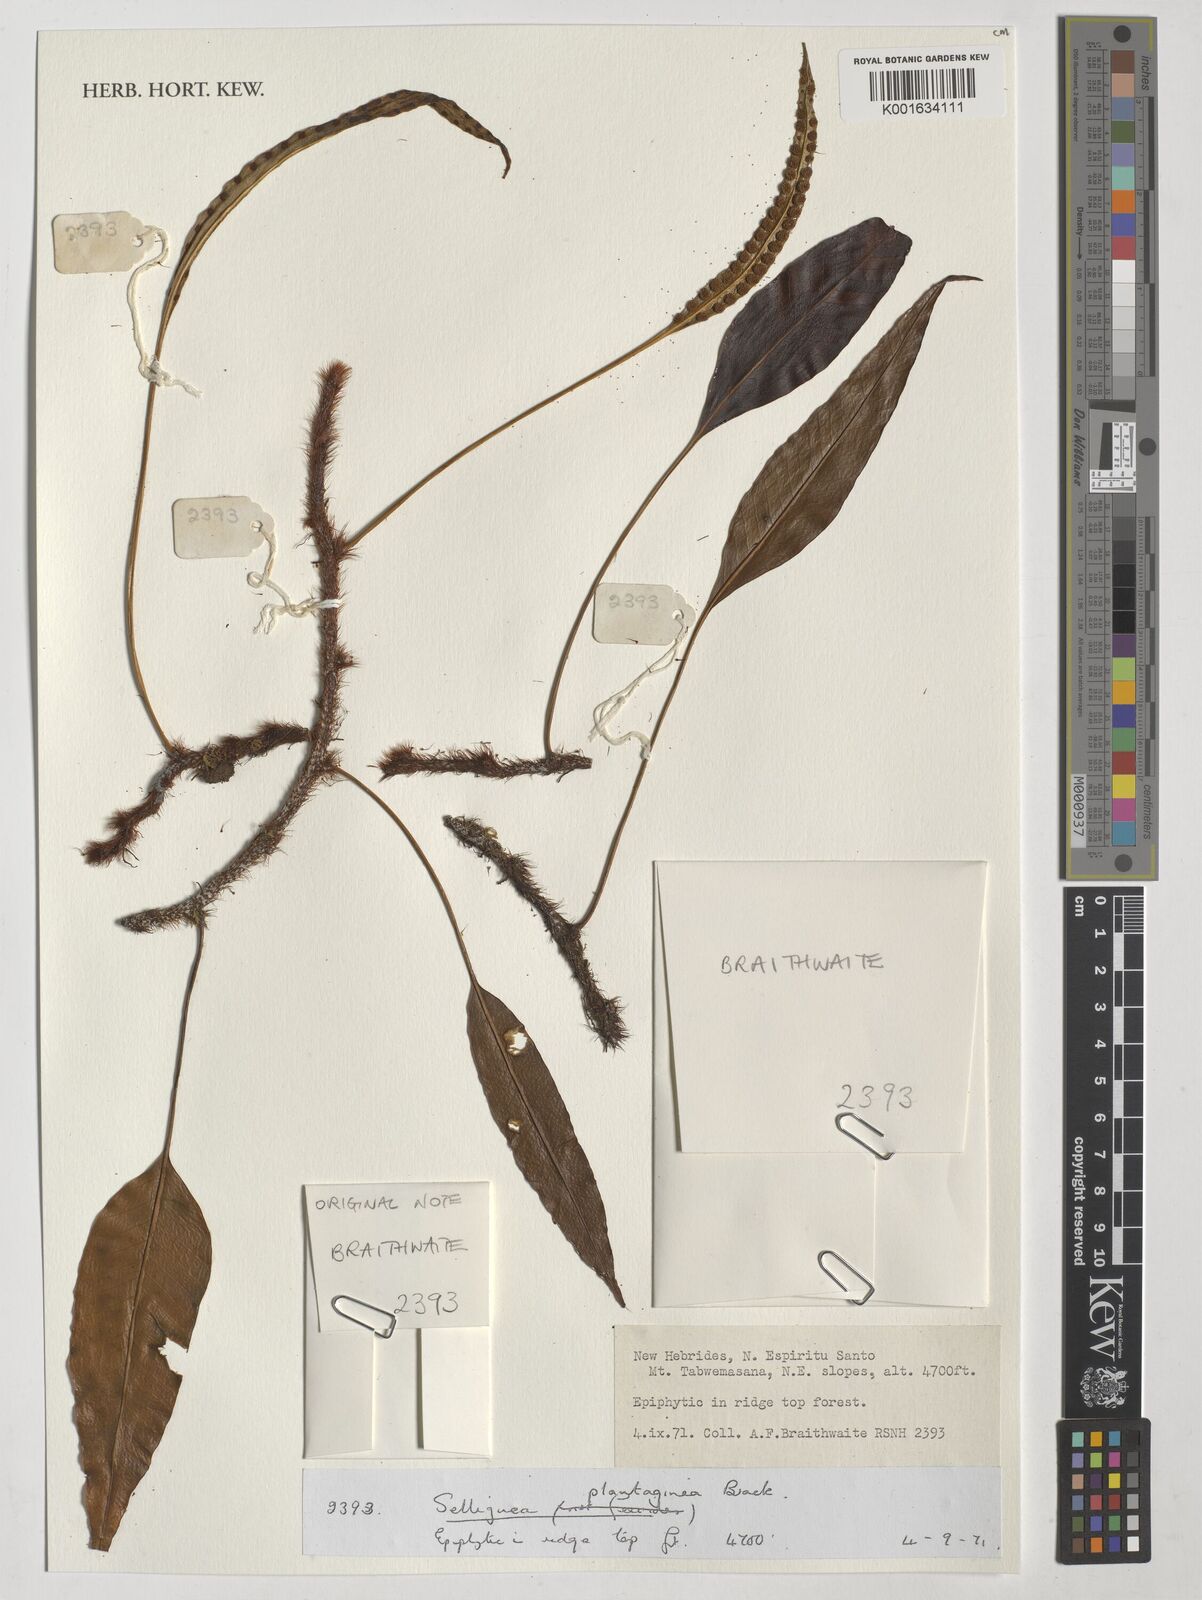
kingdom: Plantae
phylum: Tracheophyta
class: Polypodiopsida
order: Polypodiales
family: Polypodiaceae
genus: Selliguea
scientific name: Selliguea plantaginea
